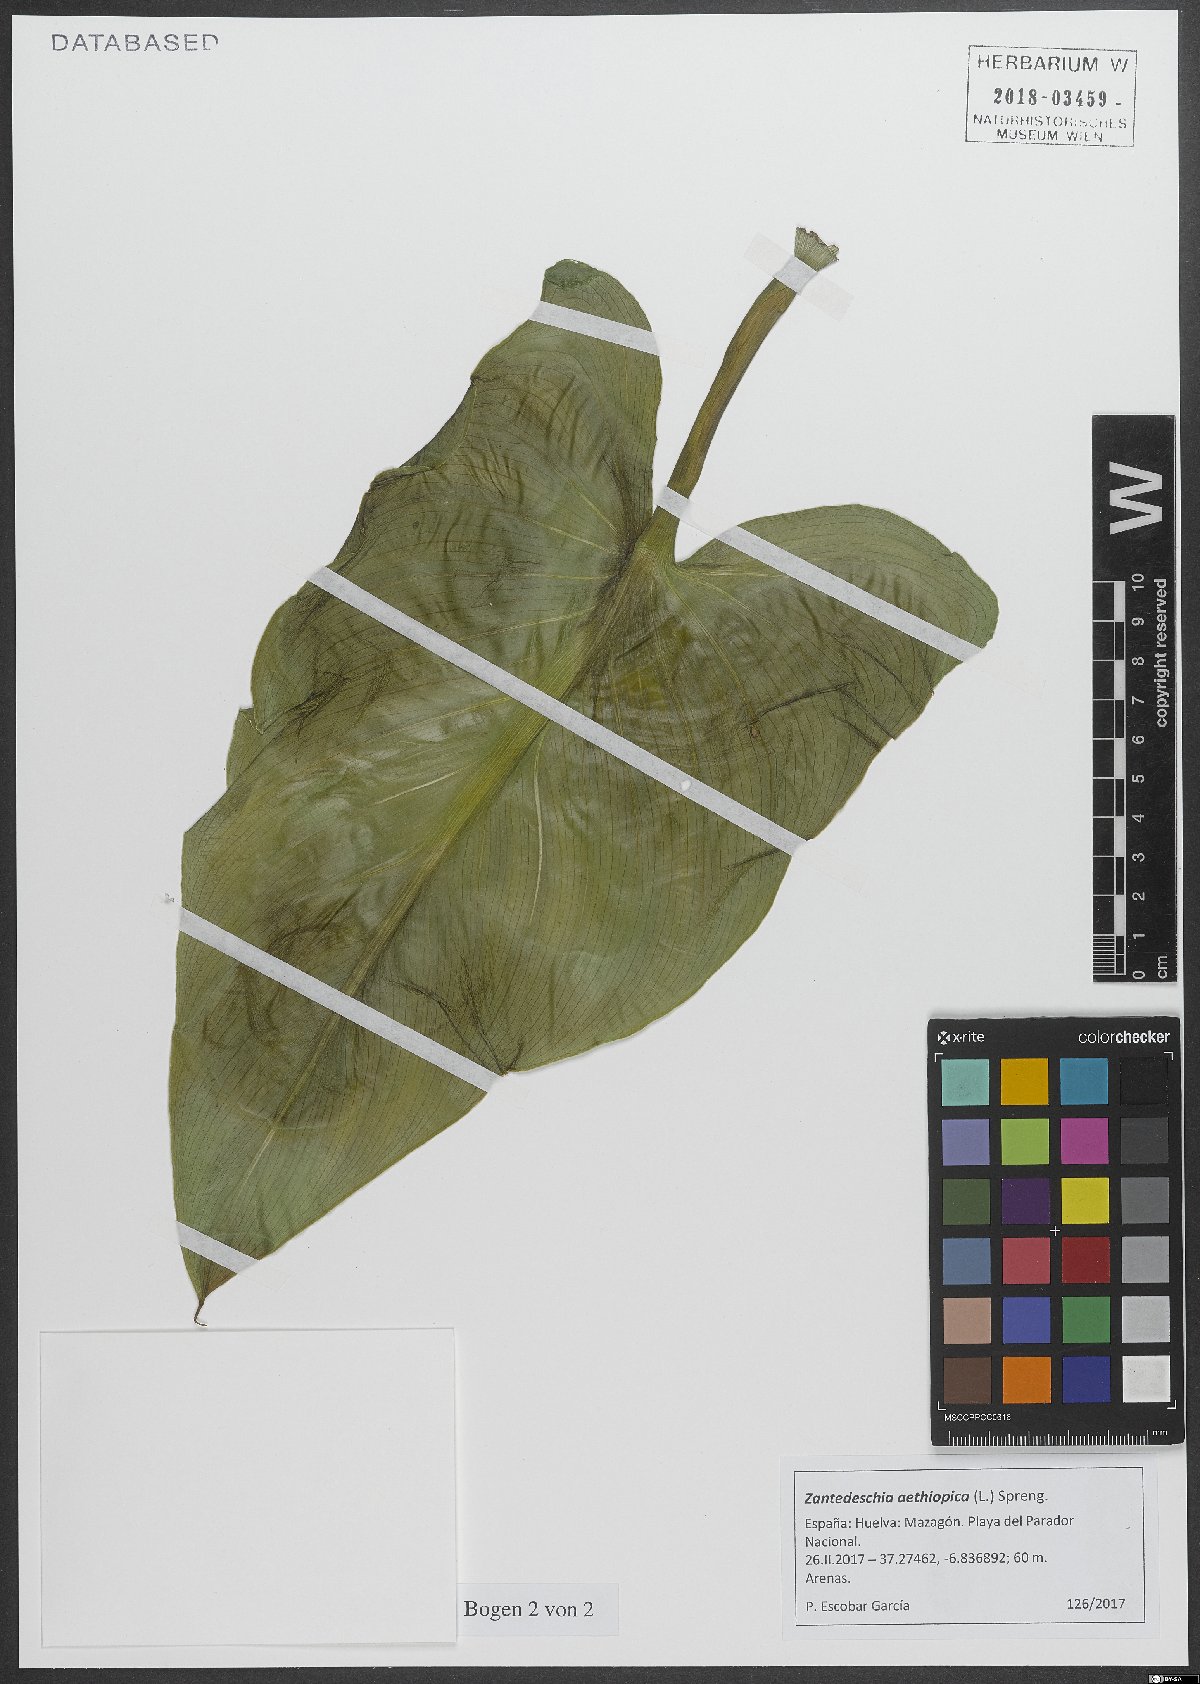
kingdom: Plantae
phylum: Tracheophyta
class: Liliopsida
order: Alismatales
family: Araceae
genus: Zantedeschia
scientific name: Zantedeschia aethiopica
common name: Altar-lily
